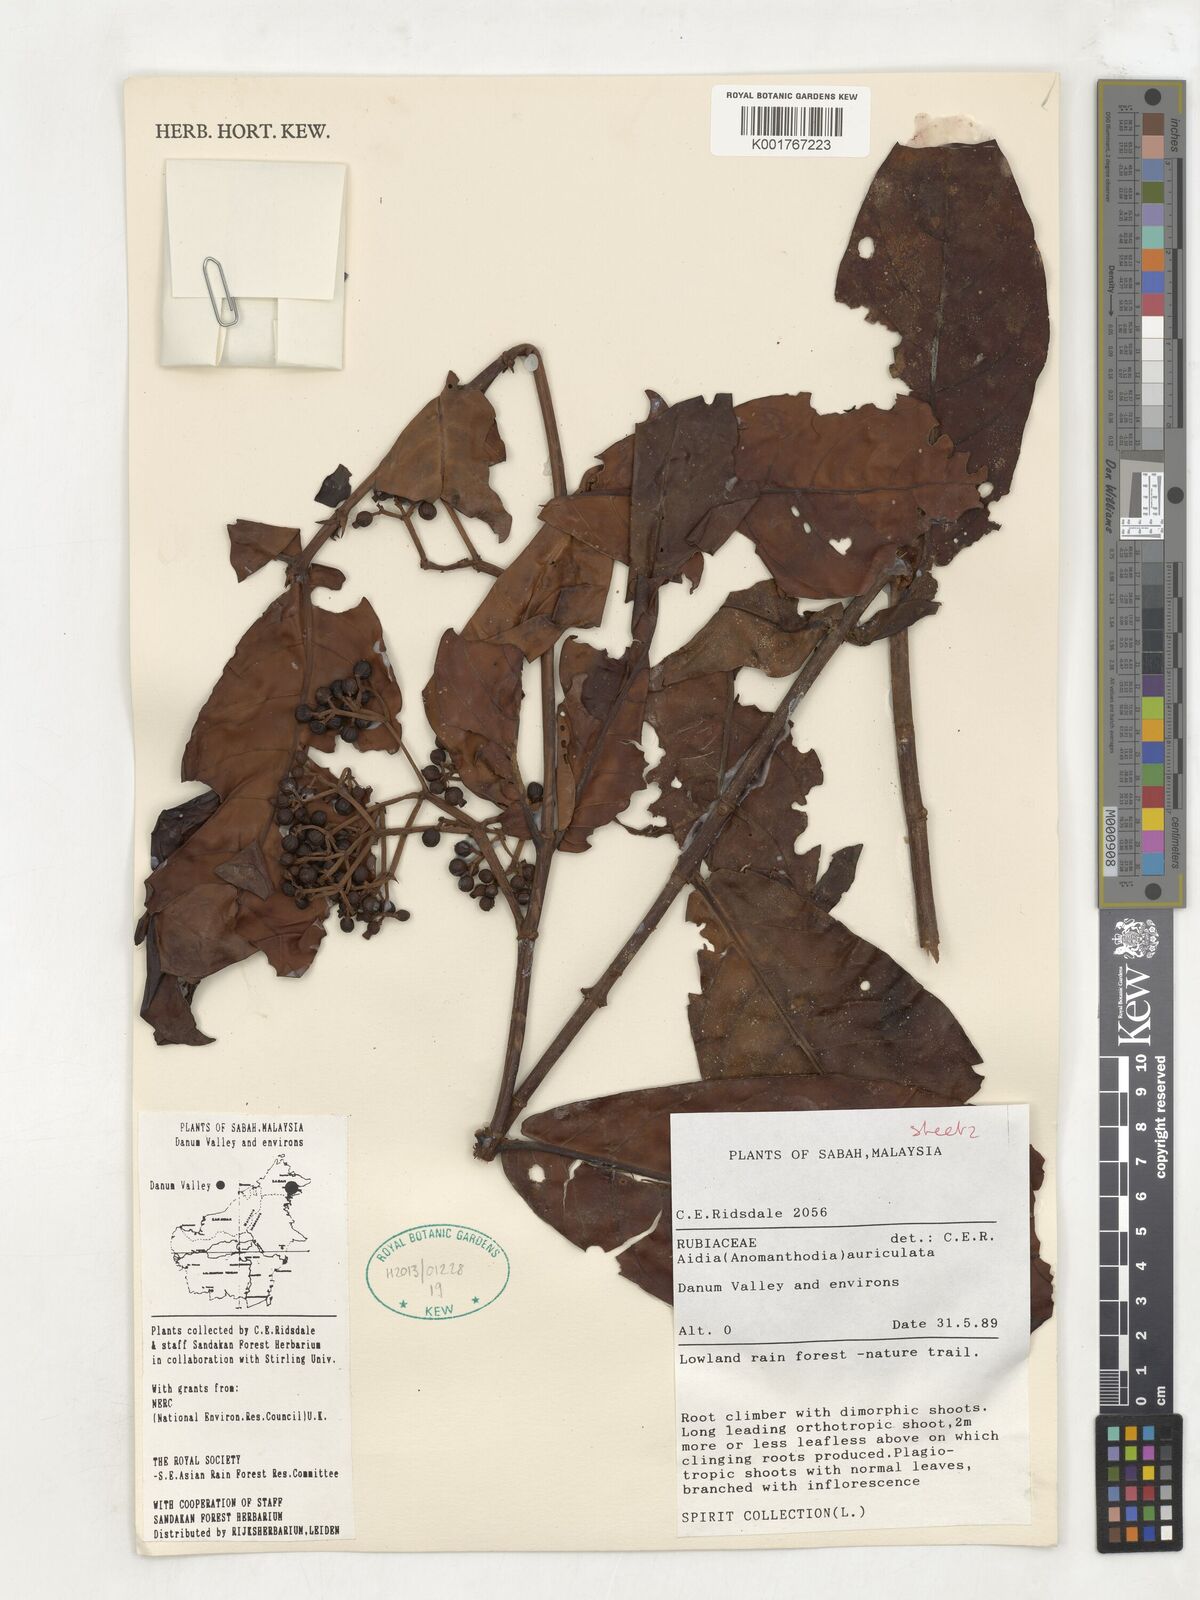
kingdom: Plantae
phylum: Tracheophyta
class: Magnoliopsida
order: Gentianales
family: Rubiaceae
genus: Aidia
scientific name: Aidia auriculata
